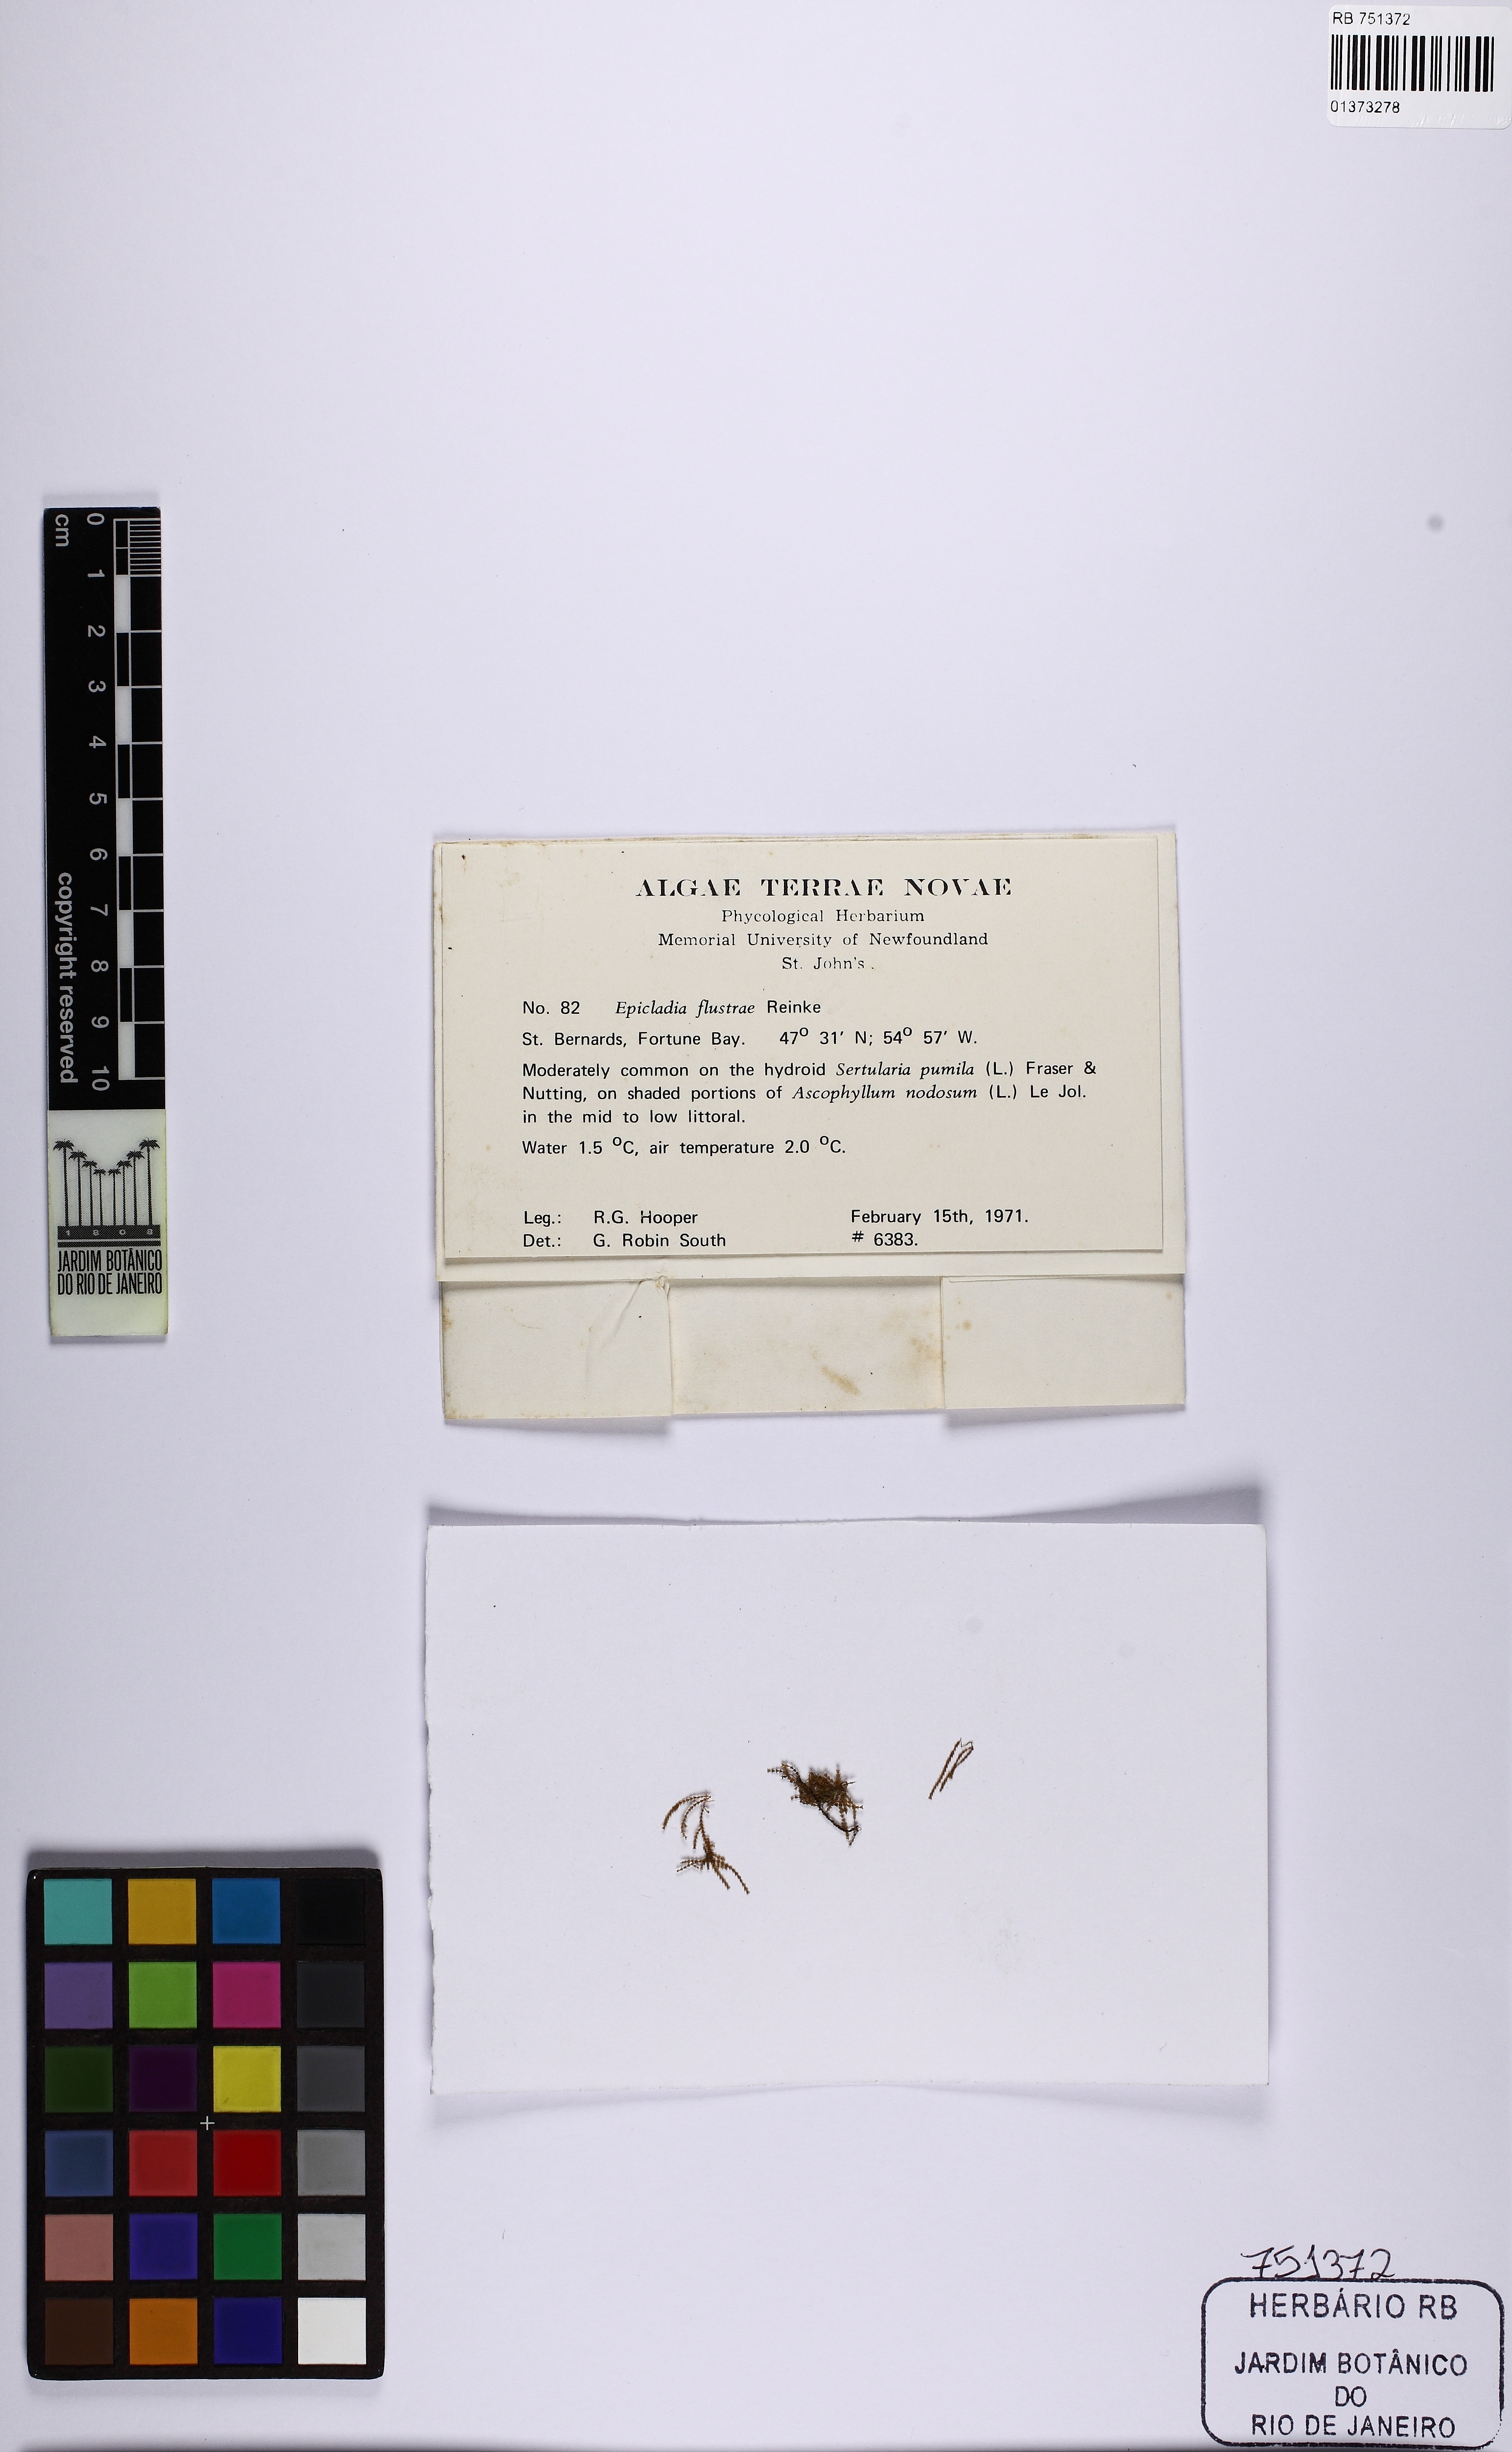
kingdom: Plantae
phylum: Chlorophyta
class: Ulvophyceae
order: Ulvales
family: Ulvellaceae
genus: Epicladia
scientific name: Epicladia flustrae
